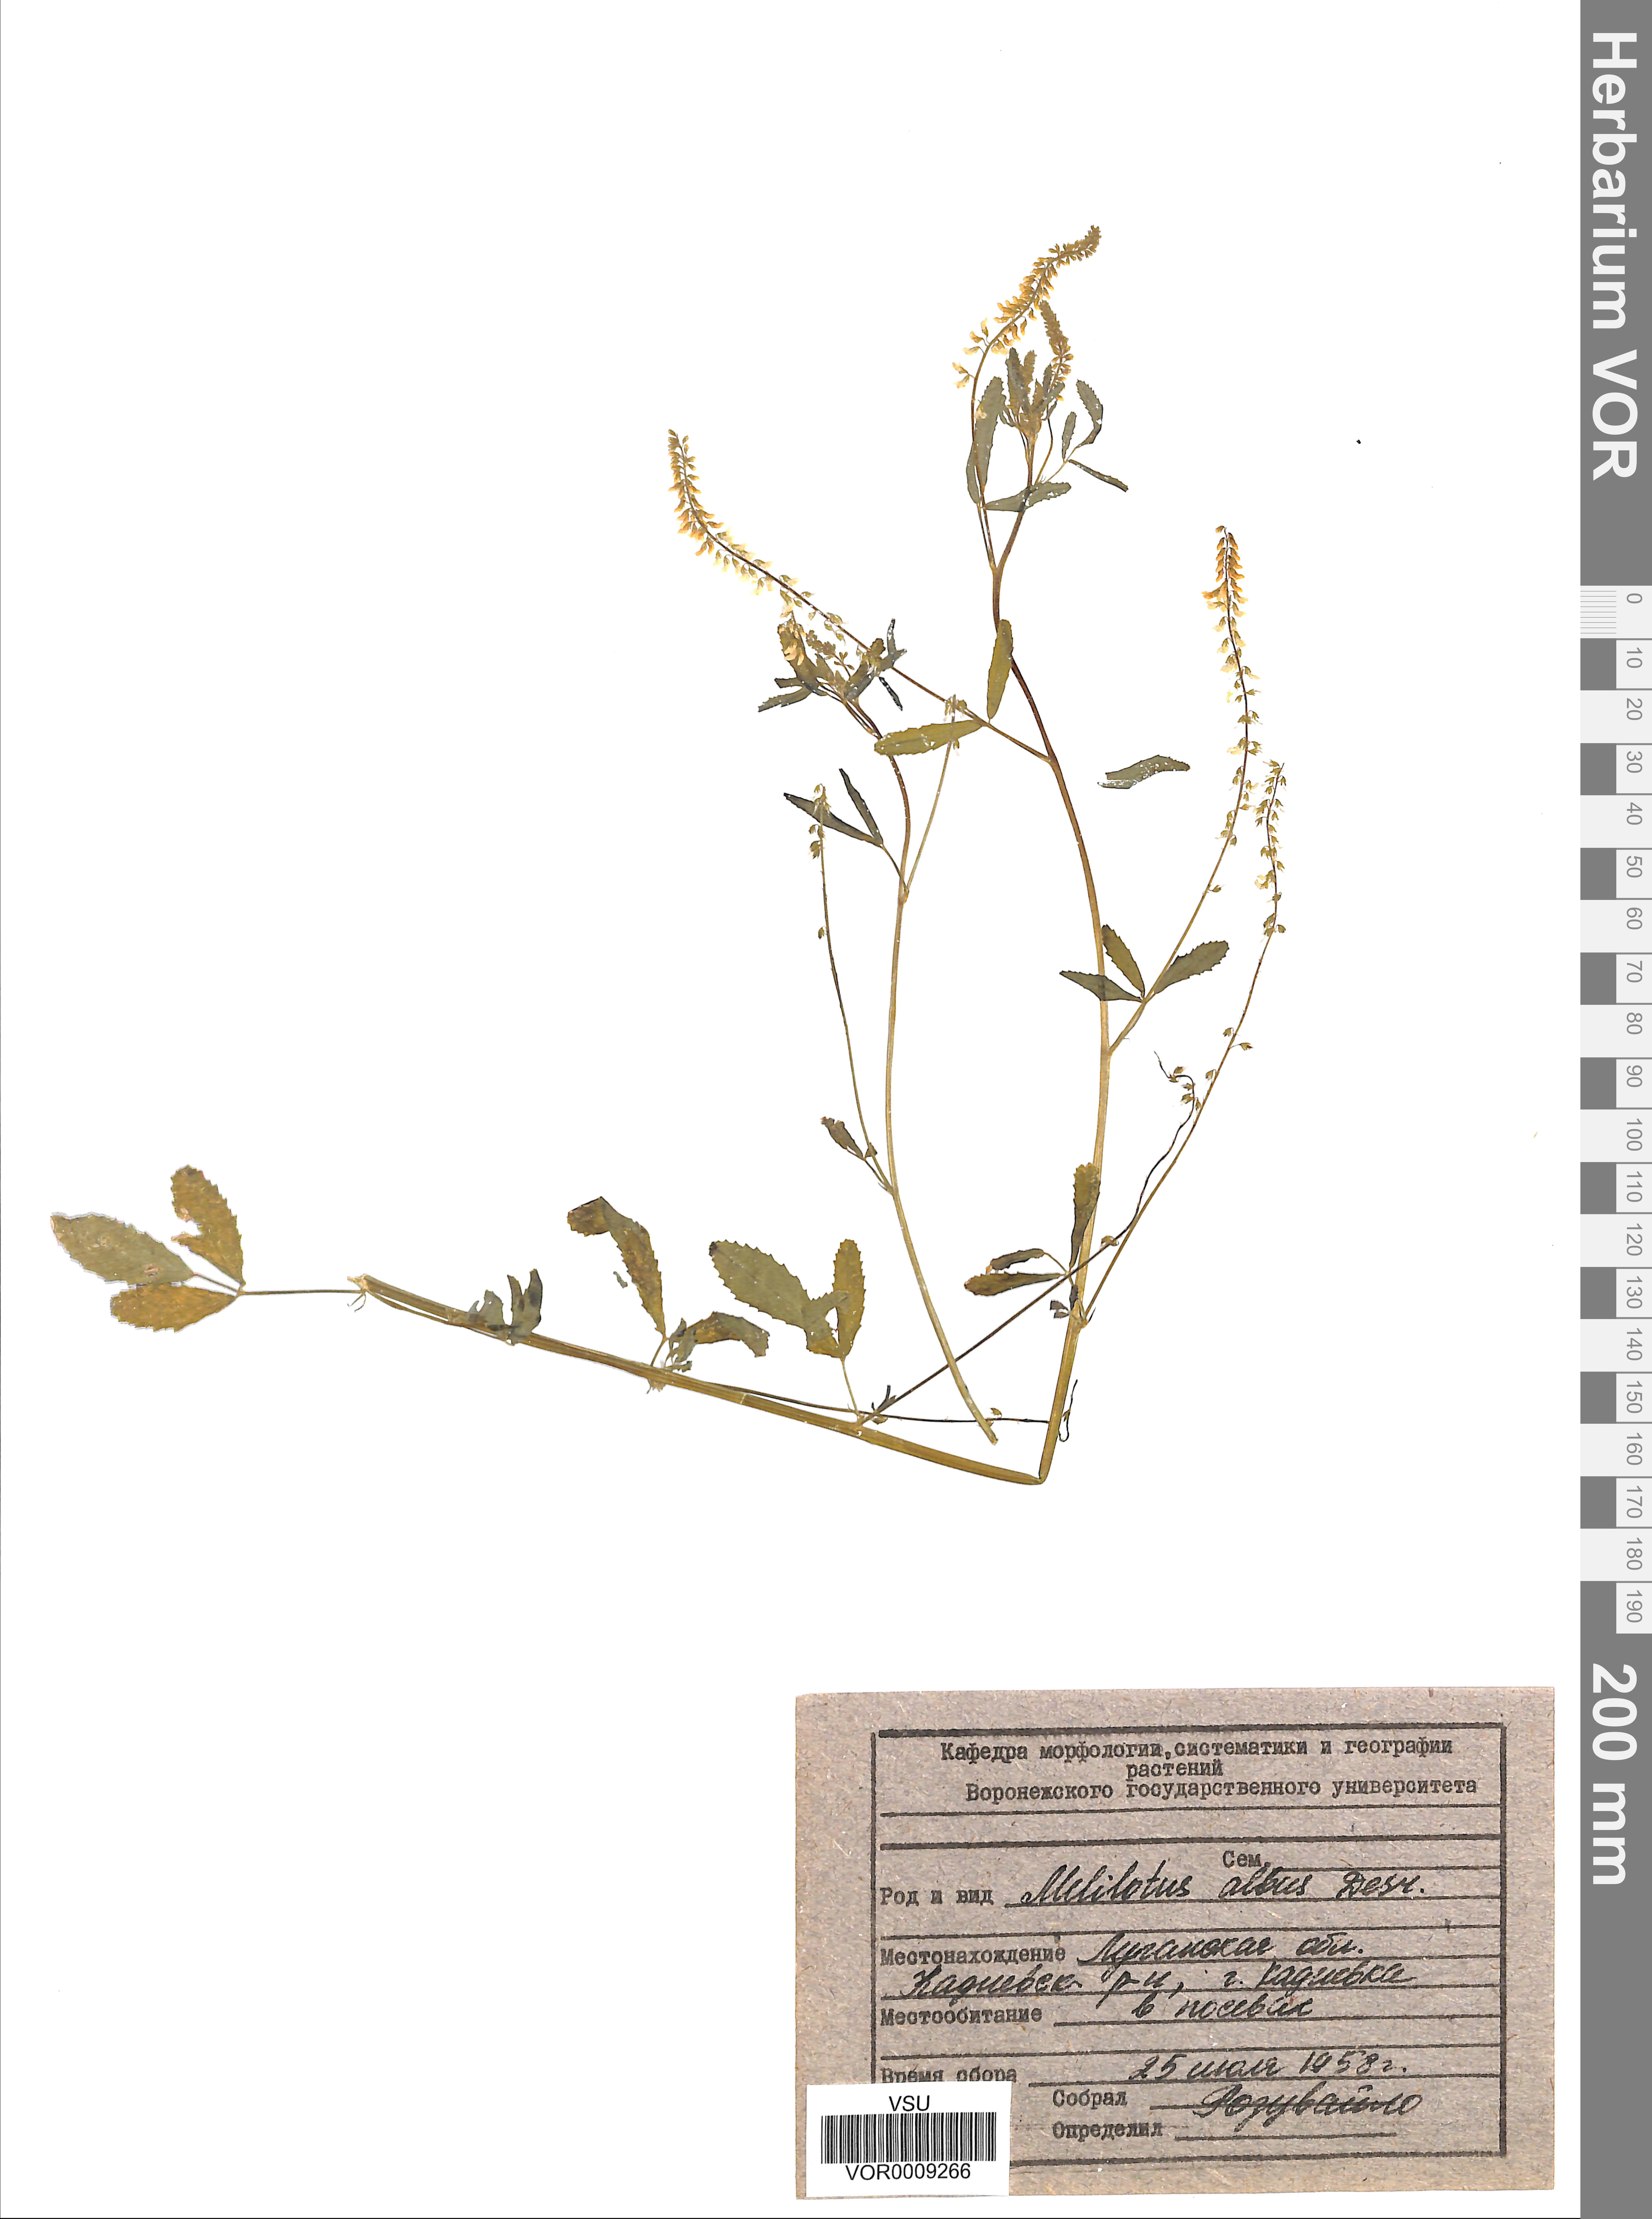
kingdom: Plantae
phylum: Tracheophyta
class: Magnoliopsida
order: Fabales
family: Fabaceae
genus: Melilotus
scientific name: Melilotus albus
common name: White melilot
